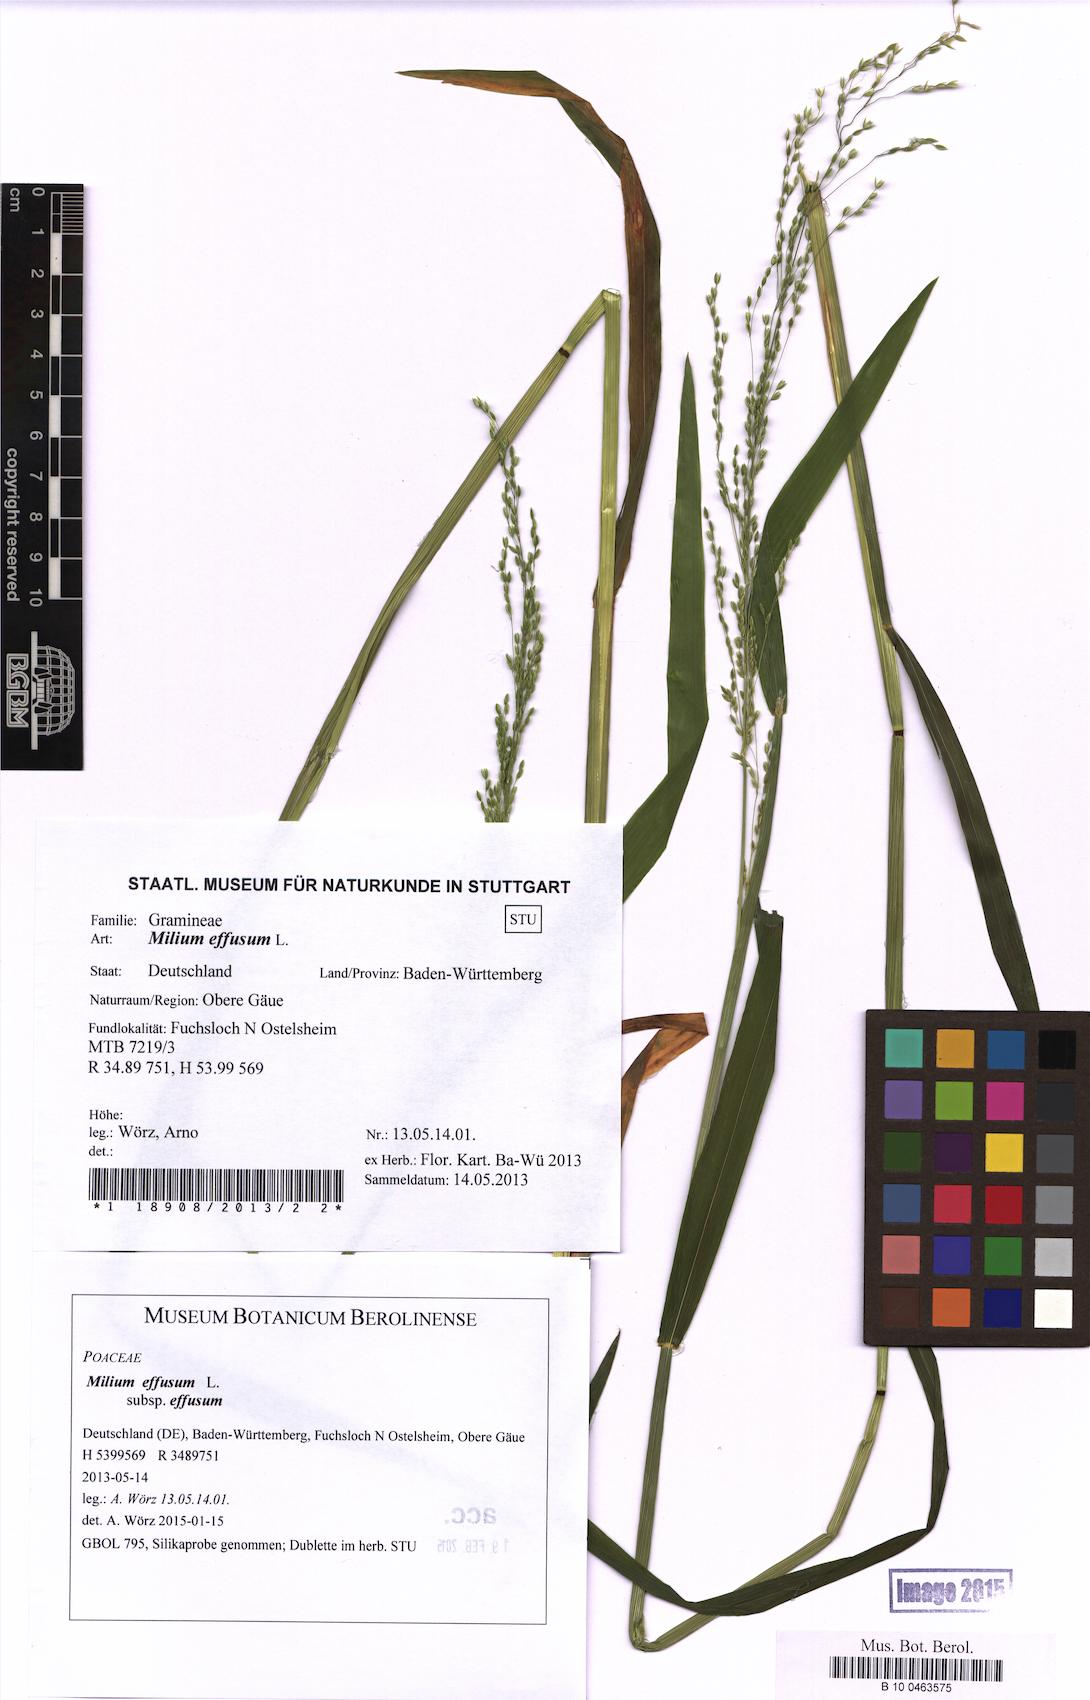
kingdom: Plantae
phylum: Tracheophyta
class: Liliopsida
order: Poales
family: Poaceae
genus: Milium
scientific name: Milium effusum
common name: Wood millet
